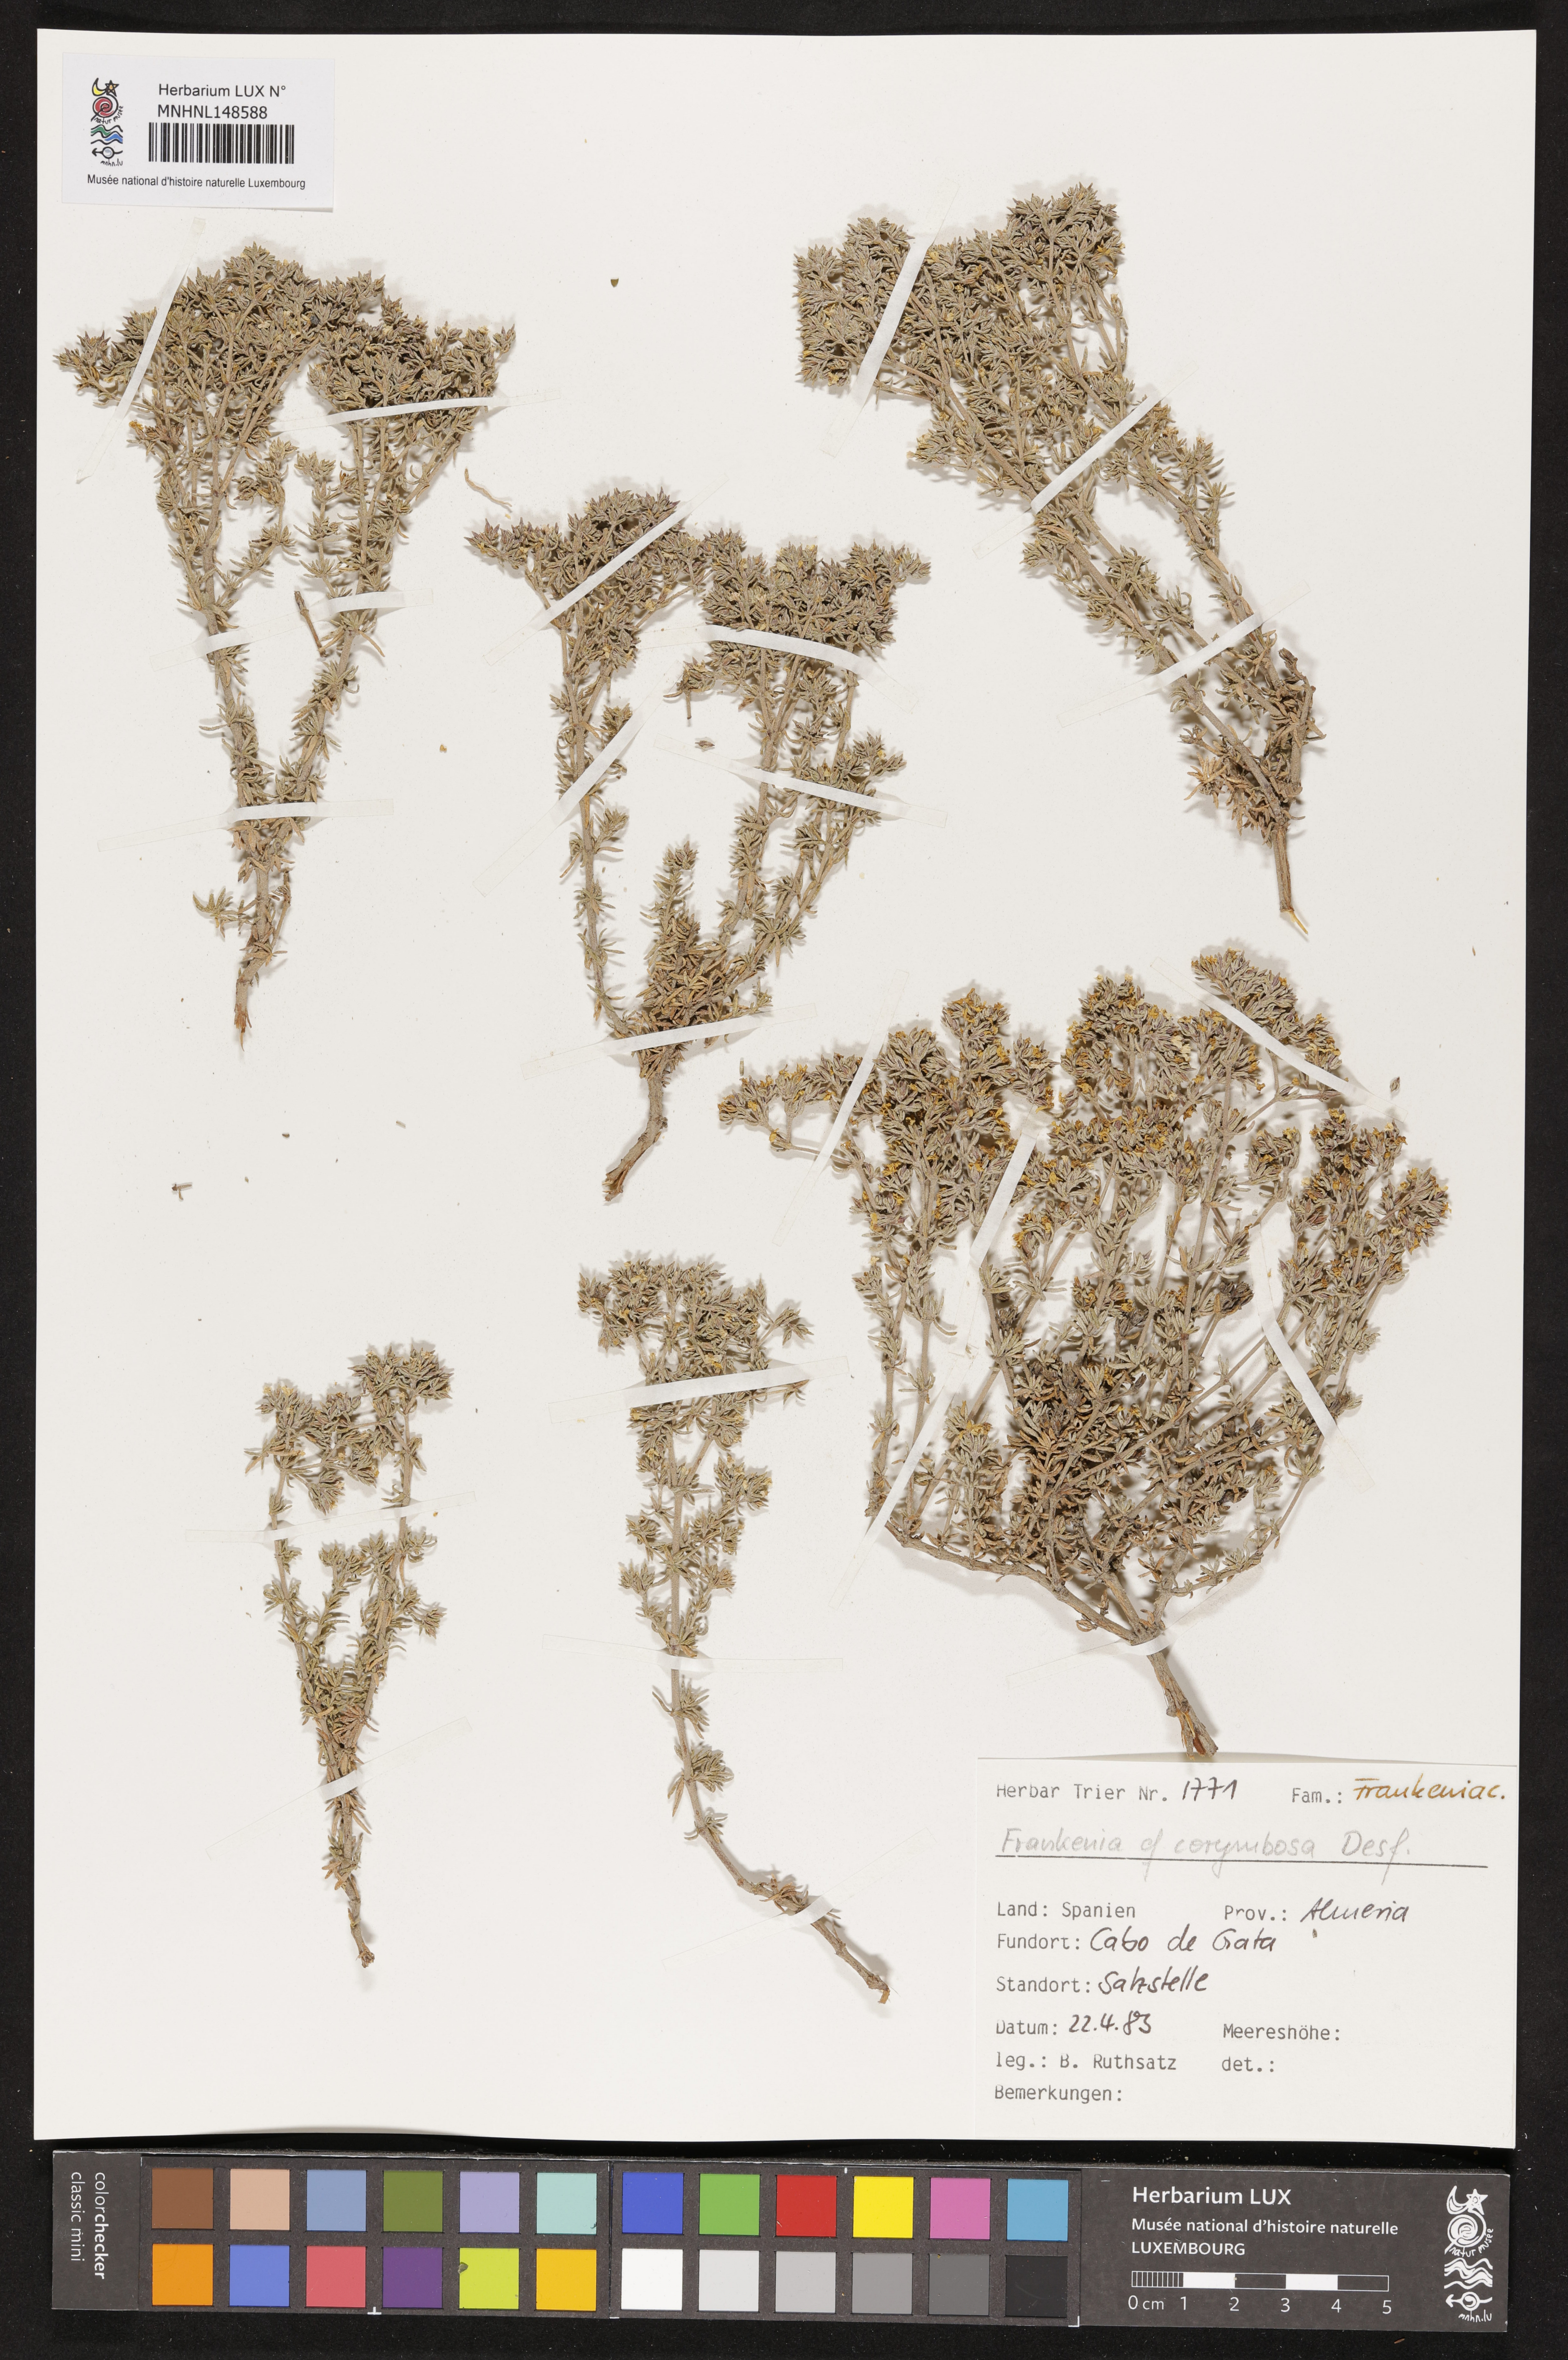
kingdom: Plantae
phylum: Tracheophyta
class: Magnoliopsida
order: Caryophyllales
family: Frankeniaceae
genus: Frankenia
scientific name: Frankenia corymbosa
